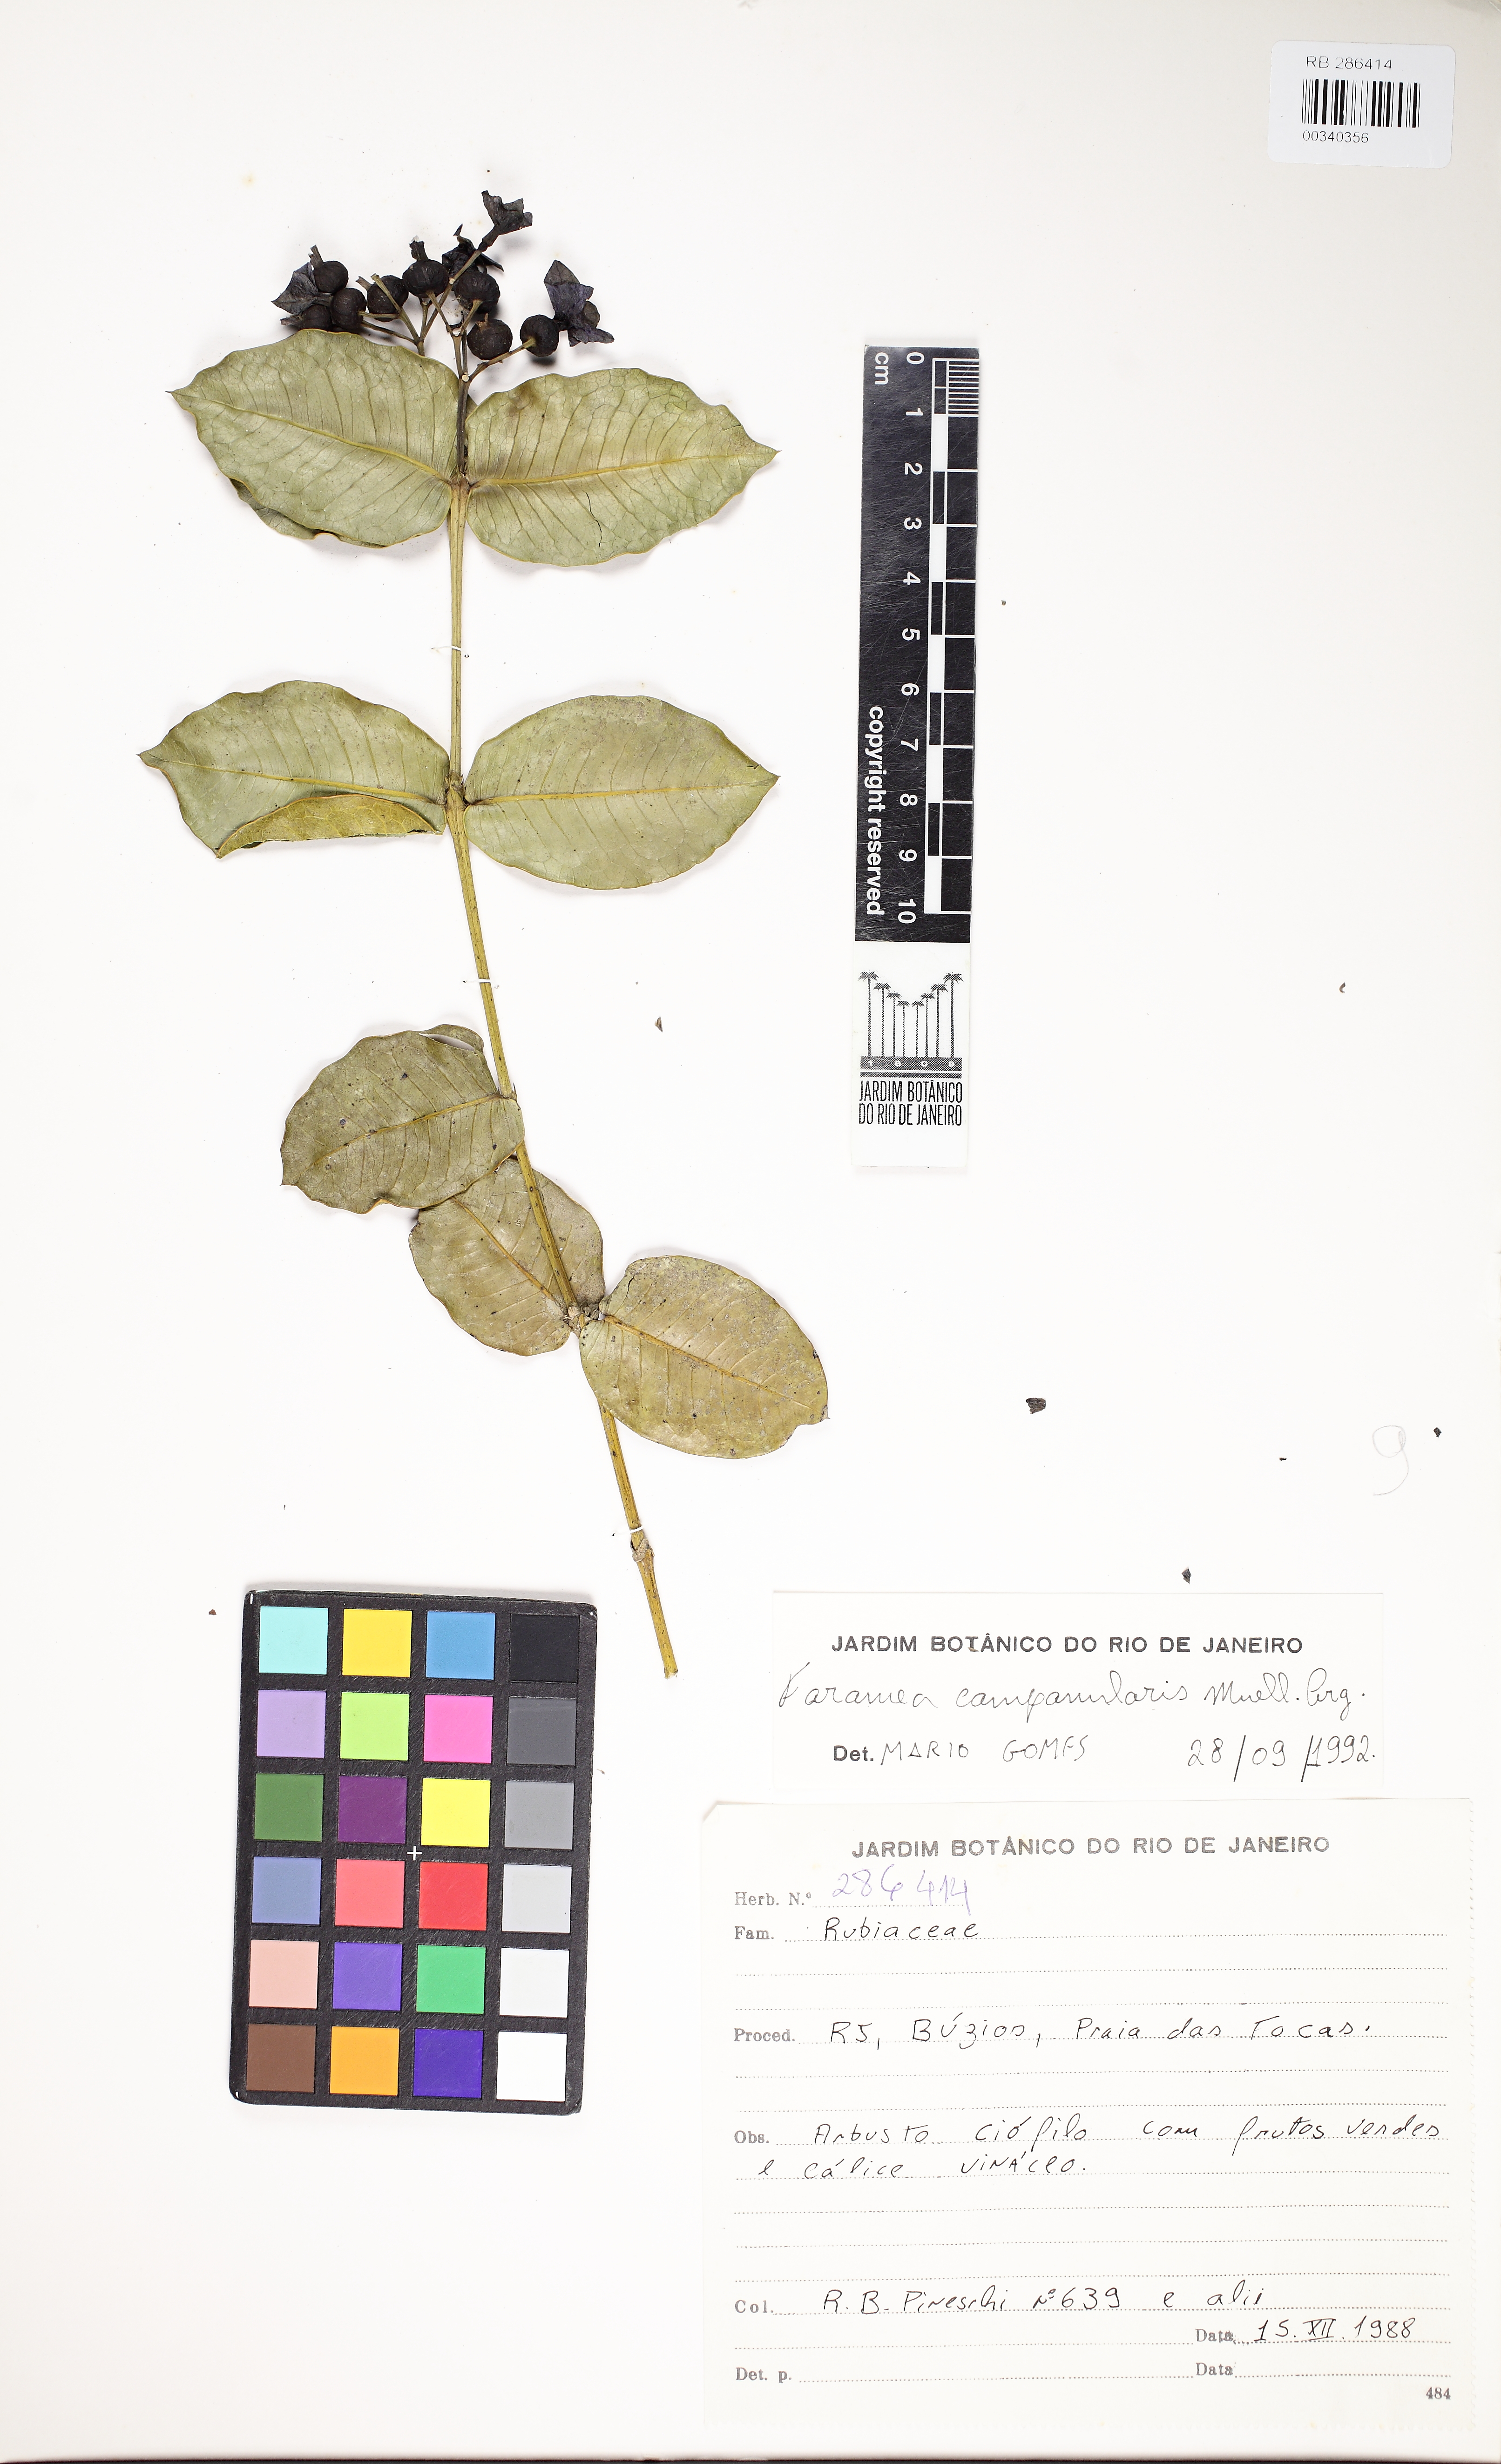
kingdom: Plantae
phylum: Tracheophyta
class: Magnoliopsida
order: Gentianales
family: Rubiaceae
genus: Faramea
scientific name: Faramea campanularis
